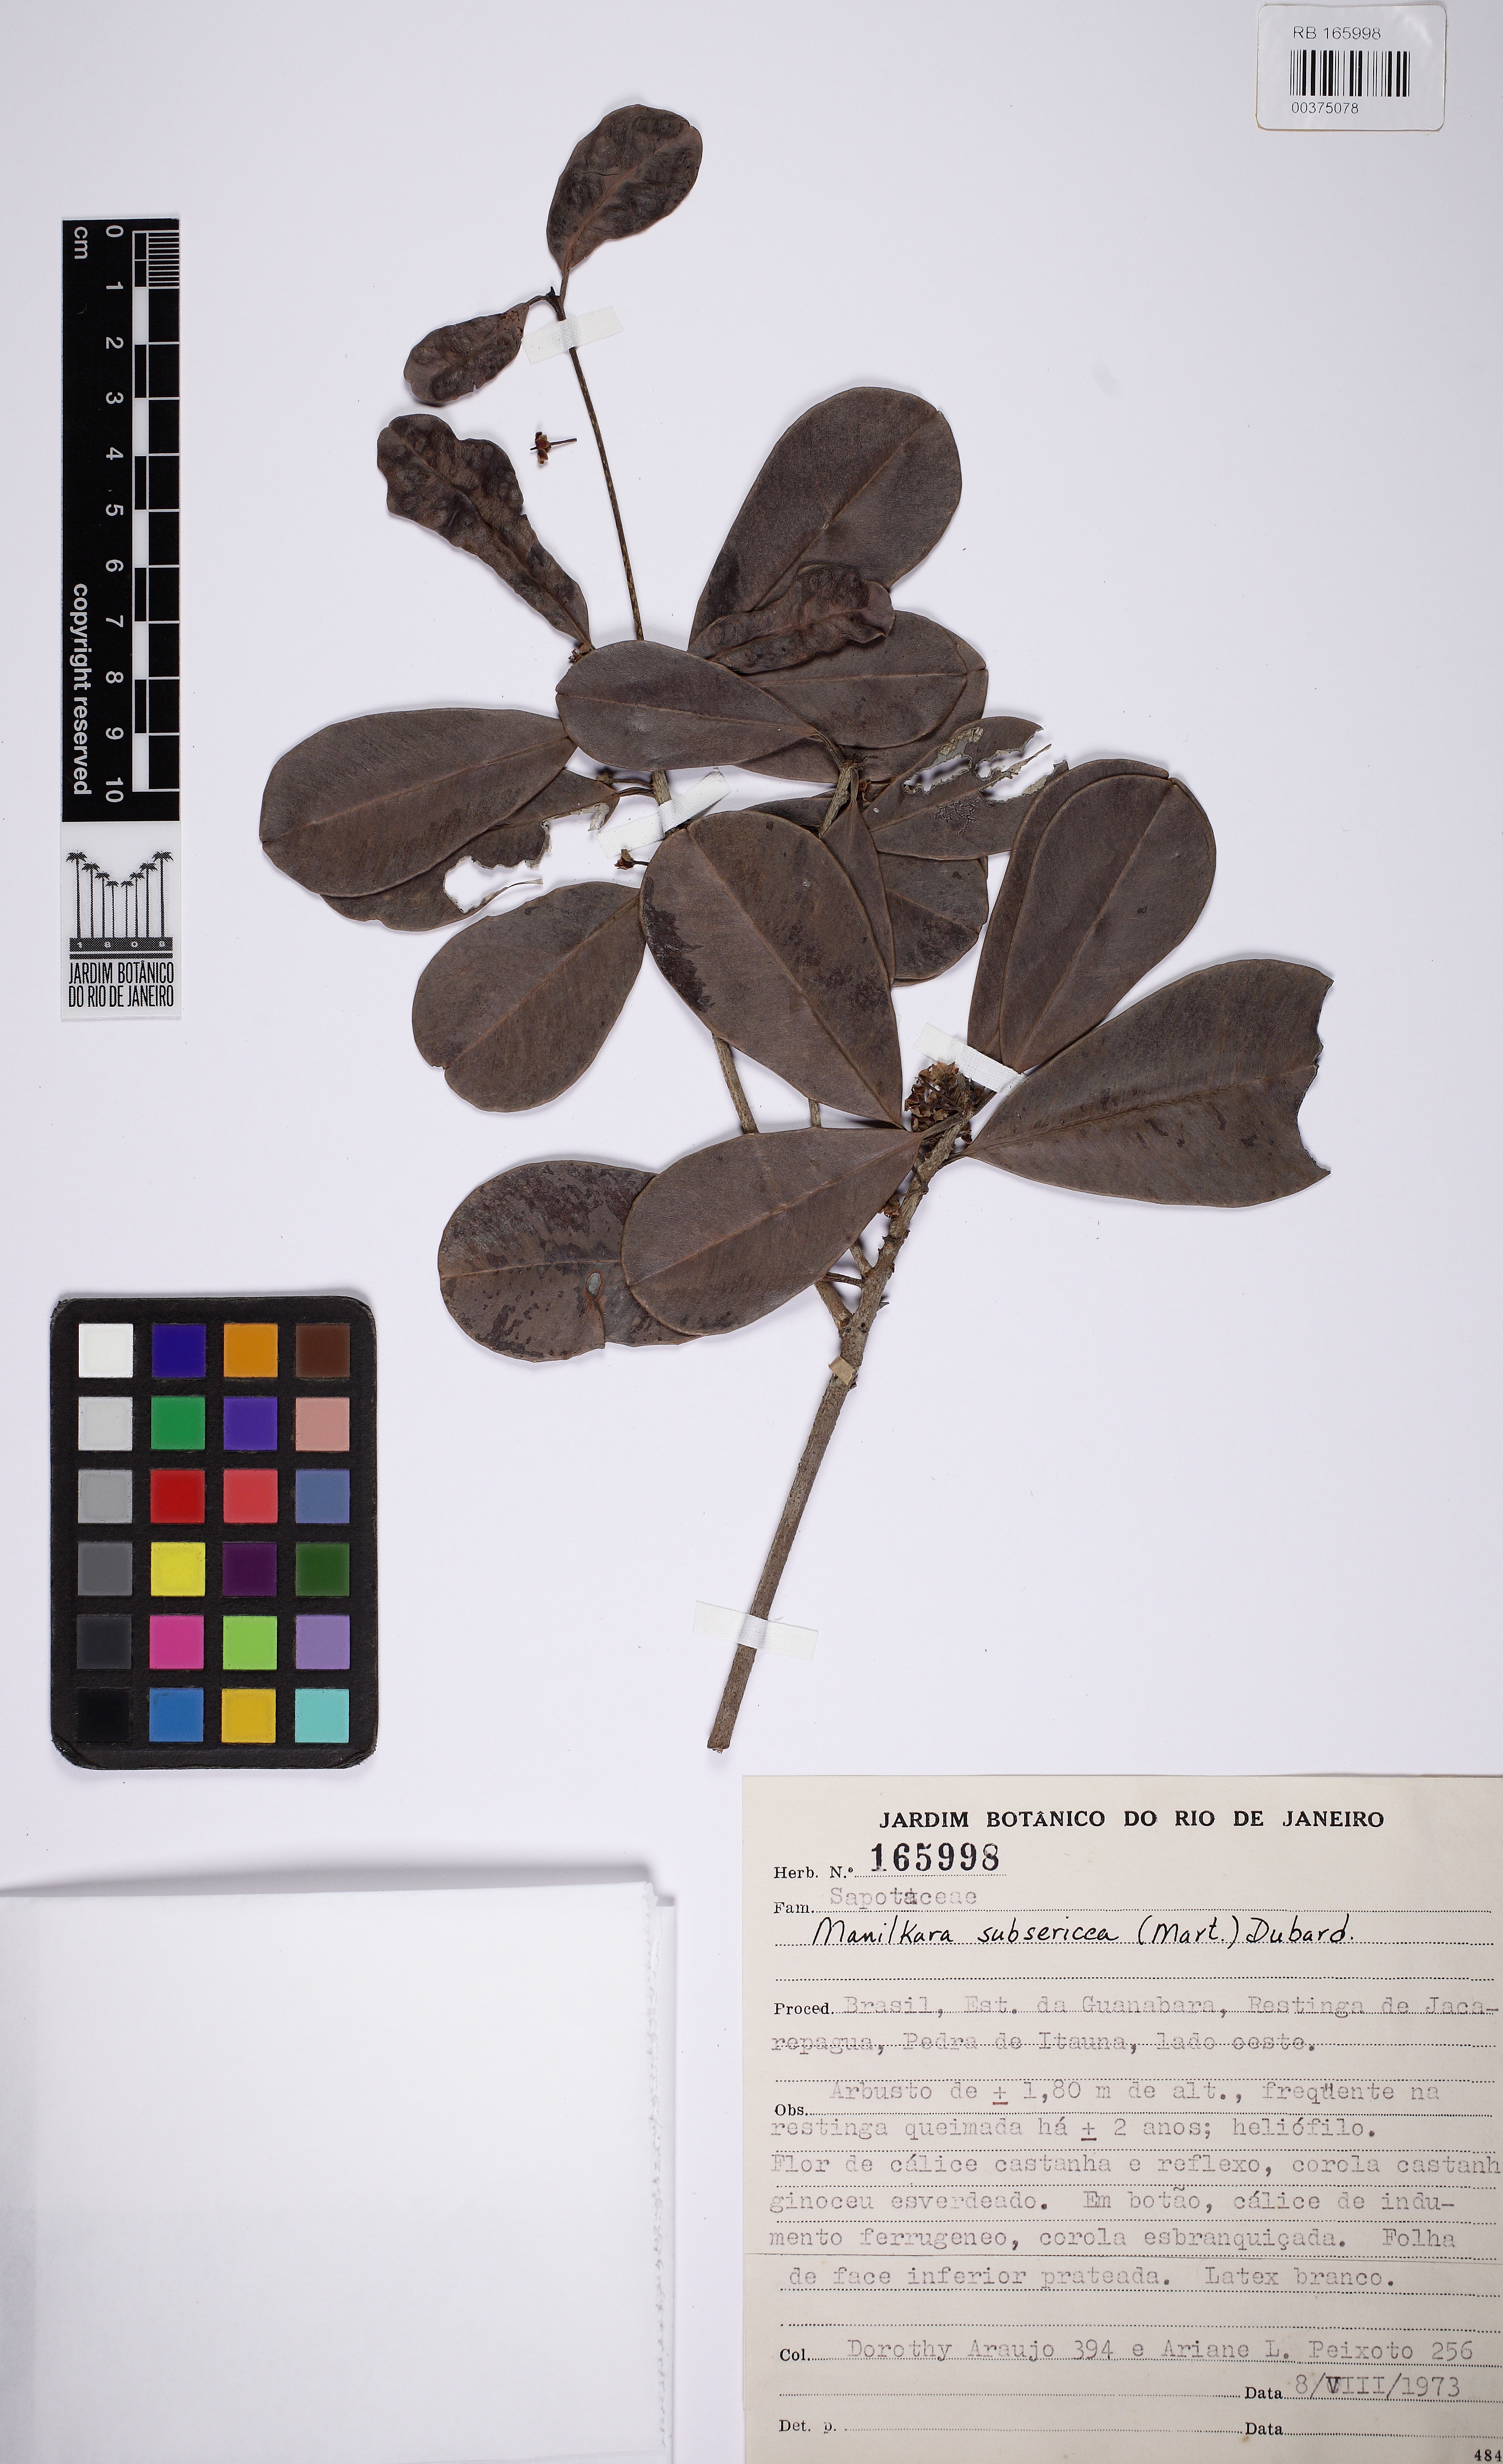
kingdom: Plantae
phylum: Tracheophyta
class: Magnoliopsida
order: Ericales
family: Sapotaceae
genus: Manilkara
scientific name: Manilkara subsericea
